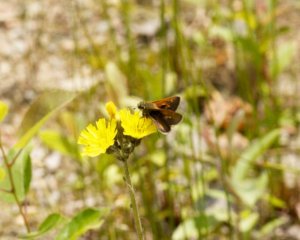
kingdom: Animalia
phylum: Arthropoda
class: Insecta
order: Lepidoptera
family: Hesperiidae
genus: Polites
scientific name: Polites coras
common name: Peck's Skipper
